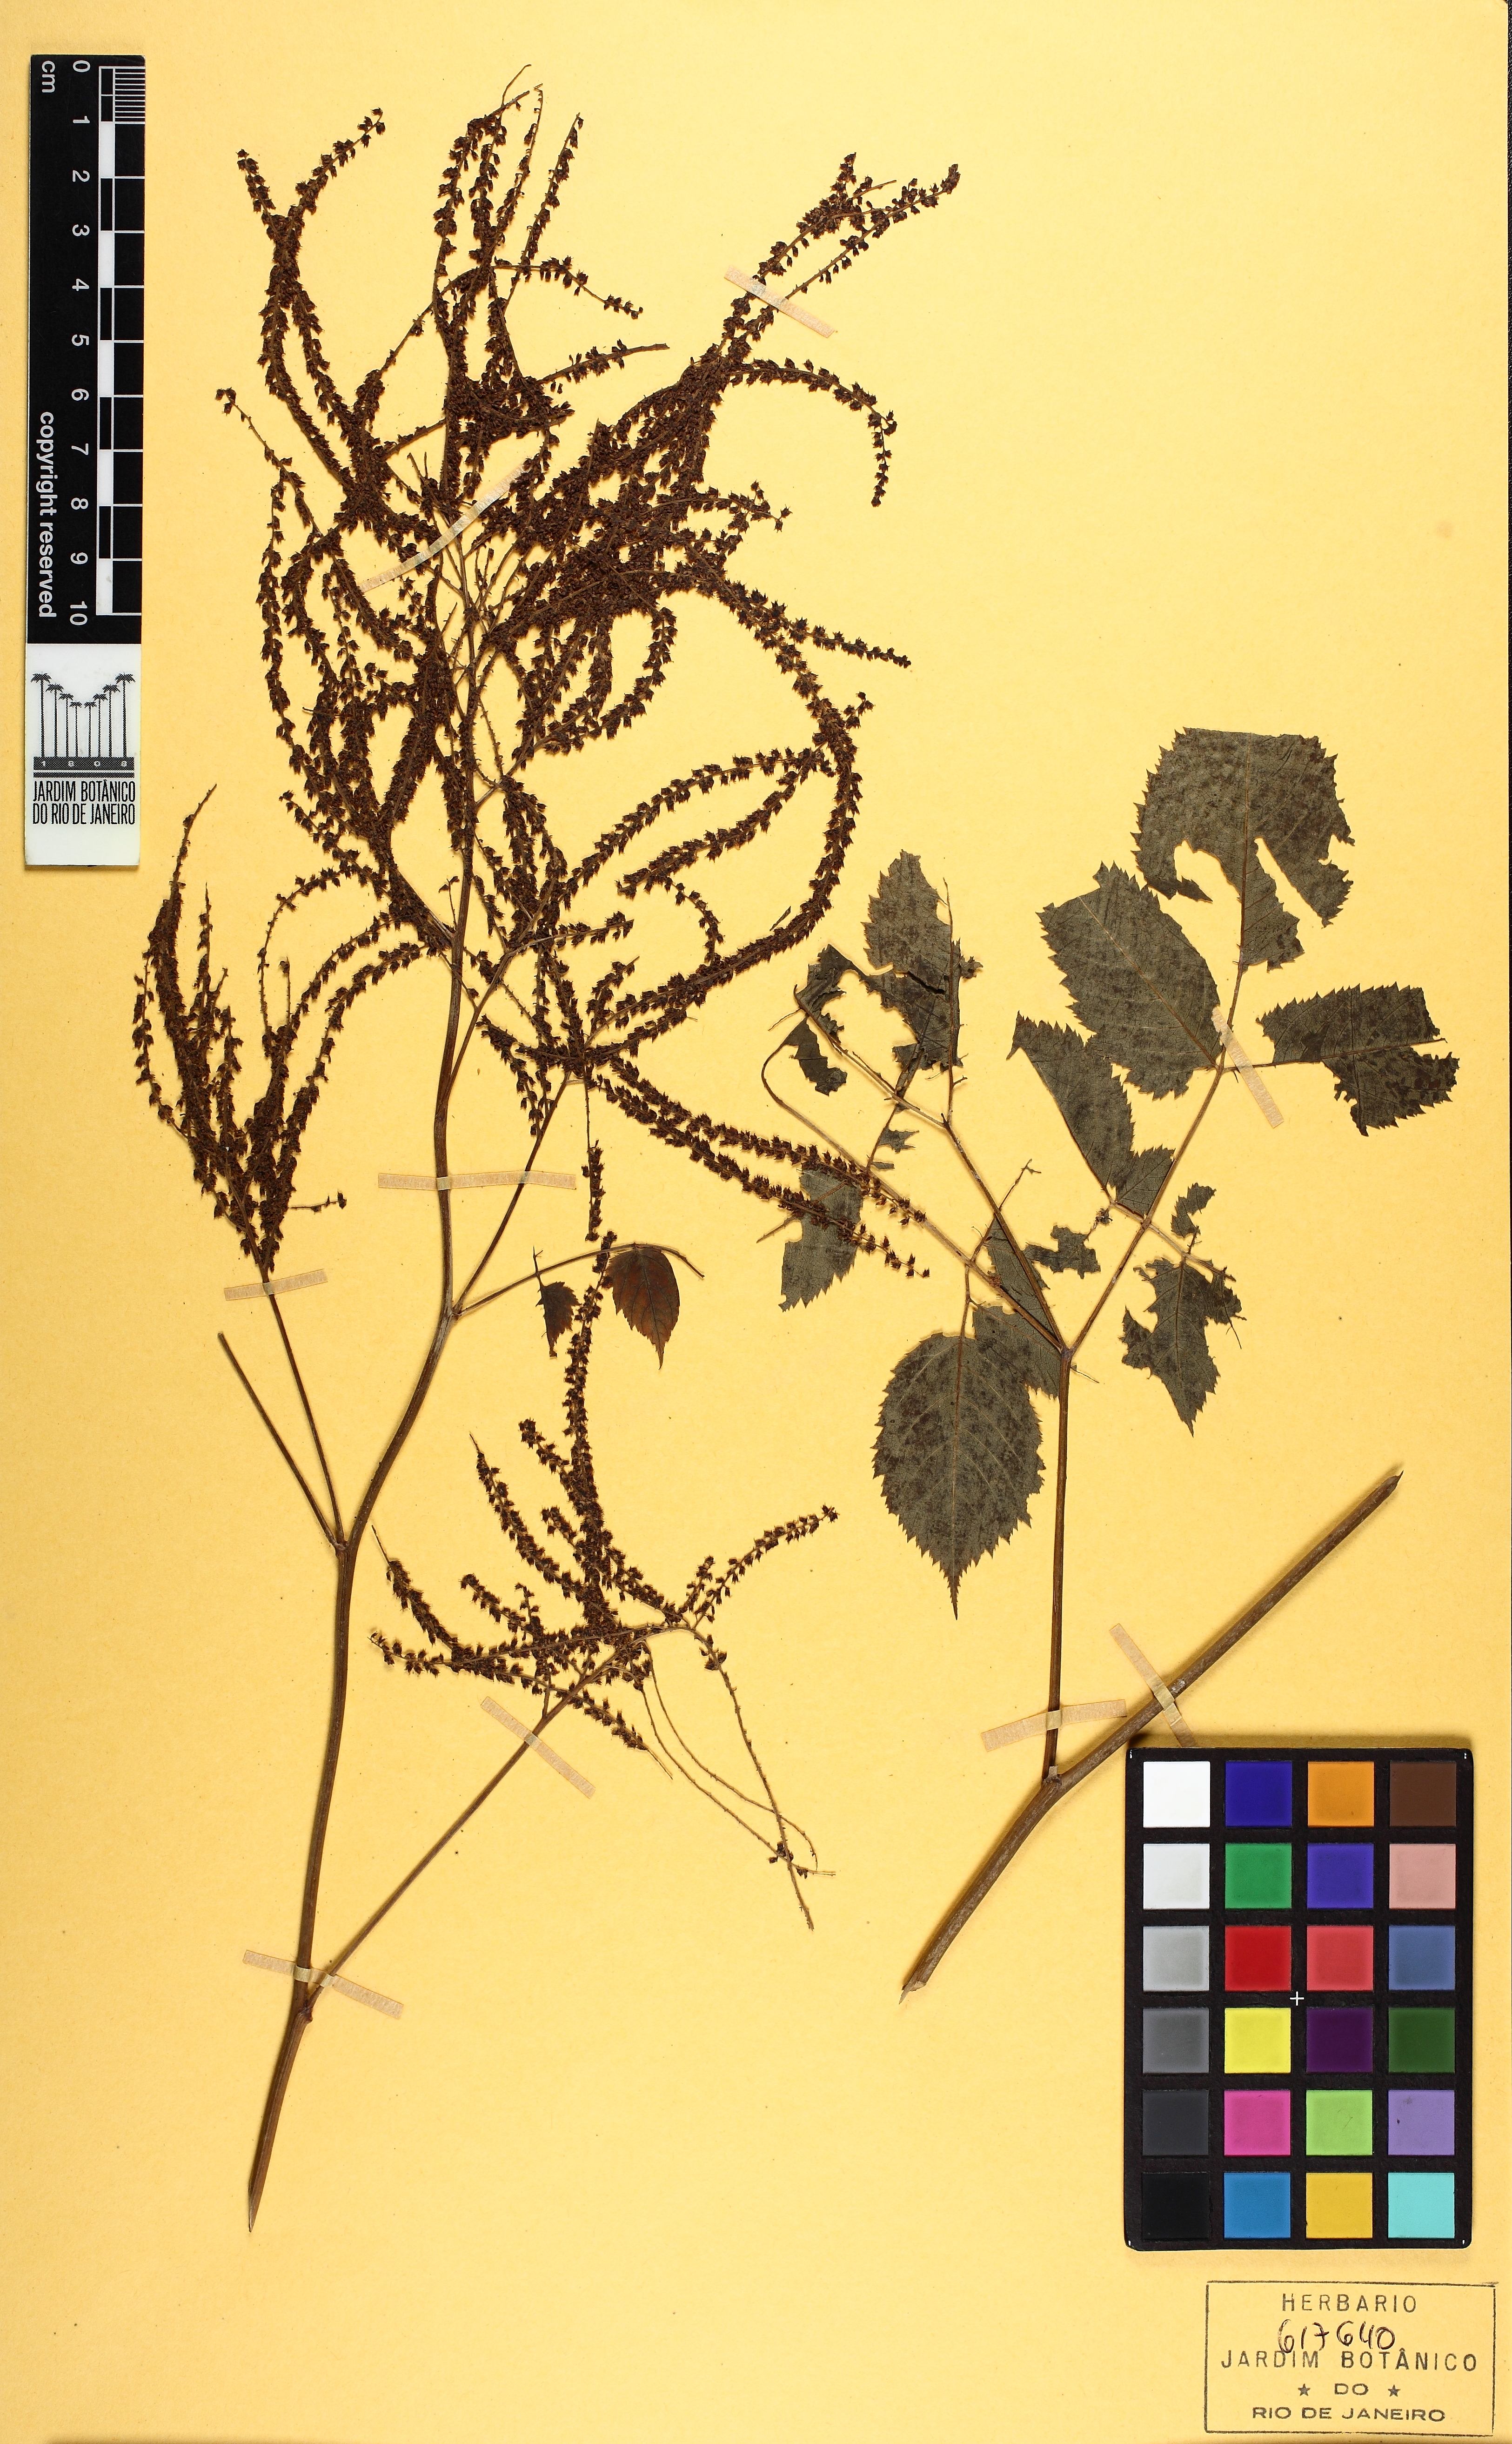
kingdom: Plantae
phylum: Tracheophyta
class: Magnoliopsida
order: Rosales
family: Rosaceae
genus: Aruncus
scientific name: Aruncus dioicus
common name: Buck's-beard
